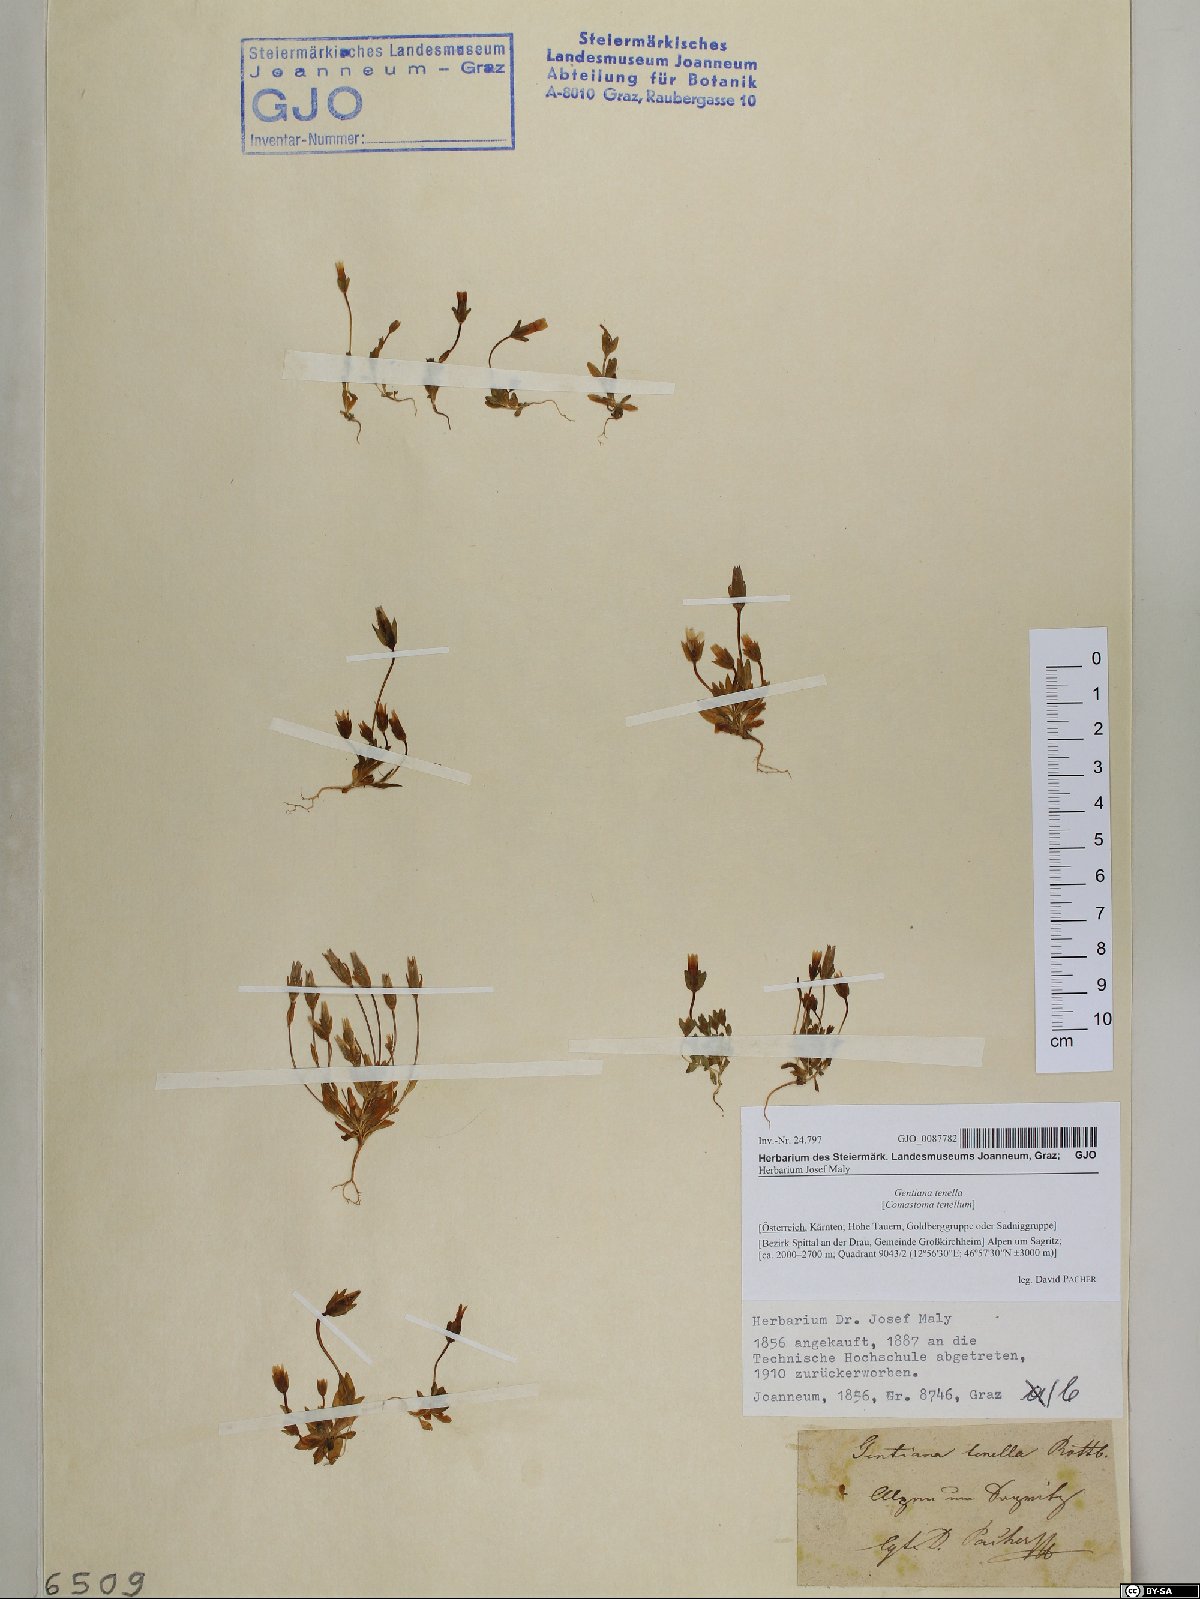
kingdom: Plantae
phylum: Tracheophyta
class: Magnoliopsida
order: Gentianales
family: Gentianaceae
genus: Comastoma
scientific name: Comastoma tenellum
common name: Dane's dwarf gentian
